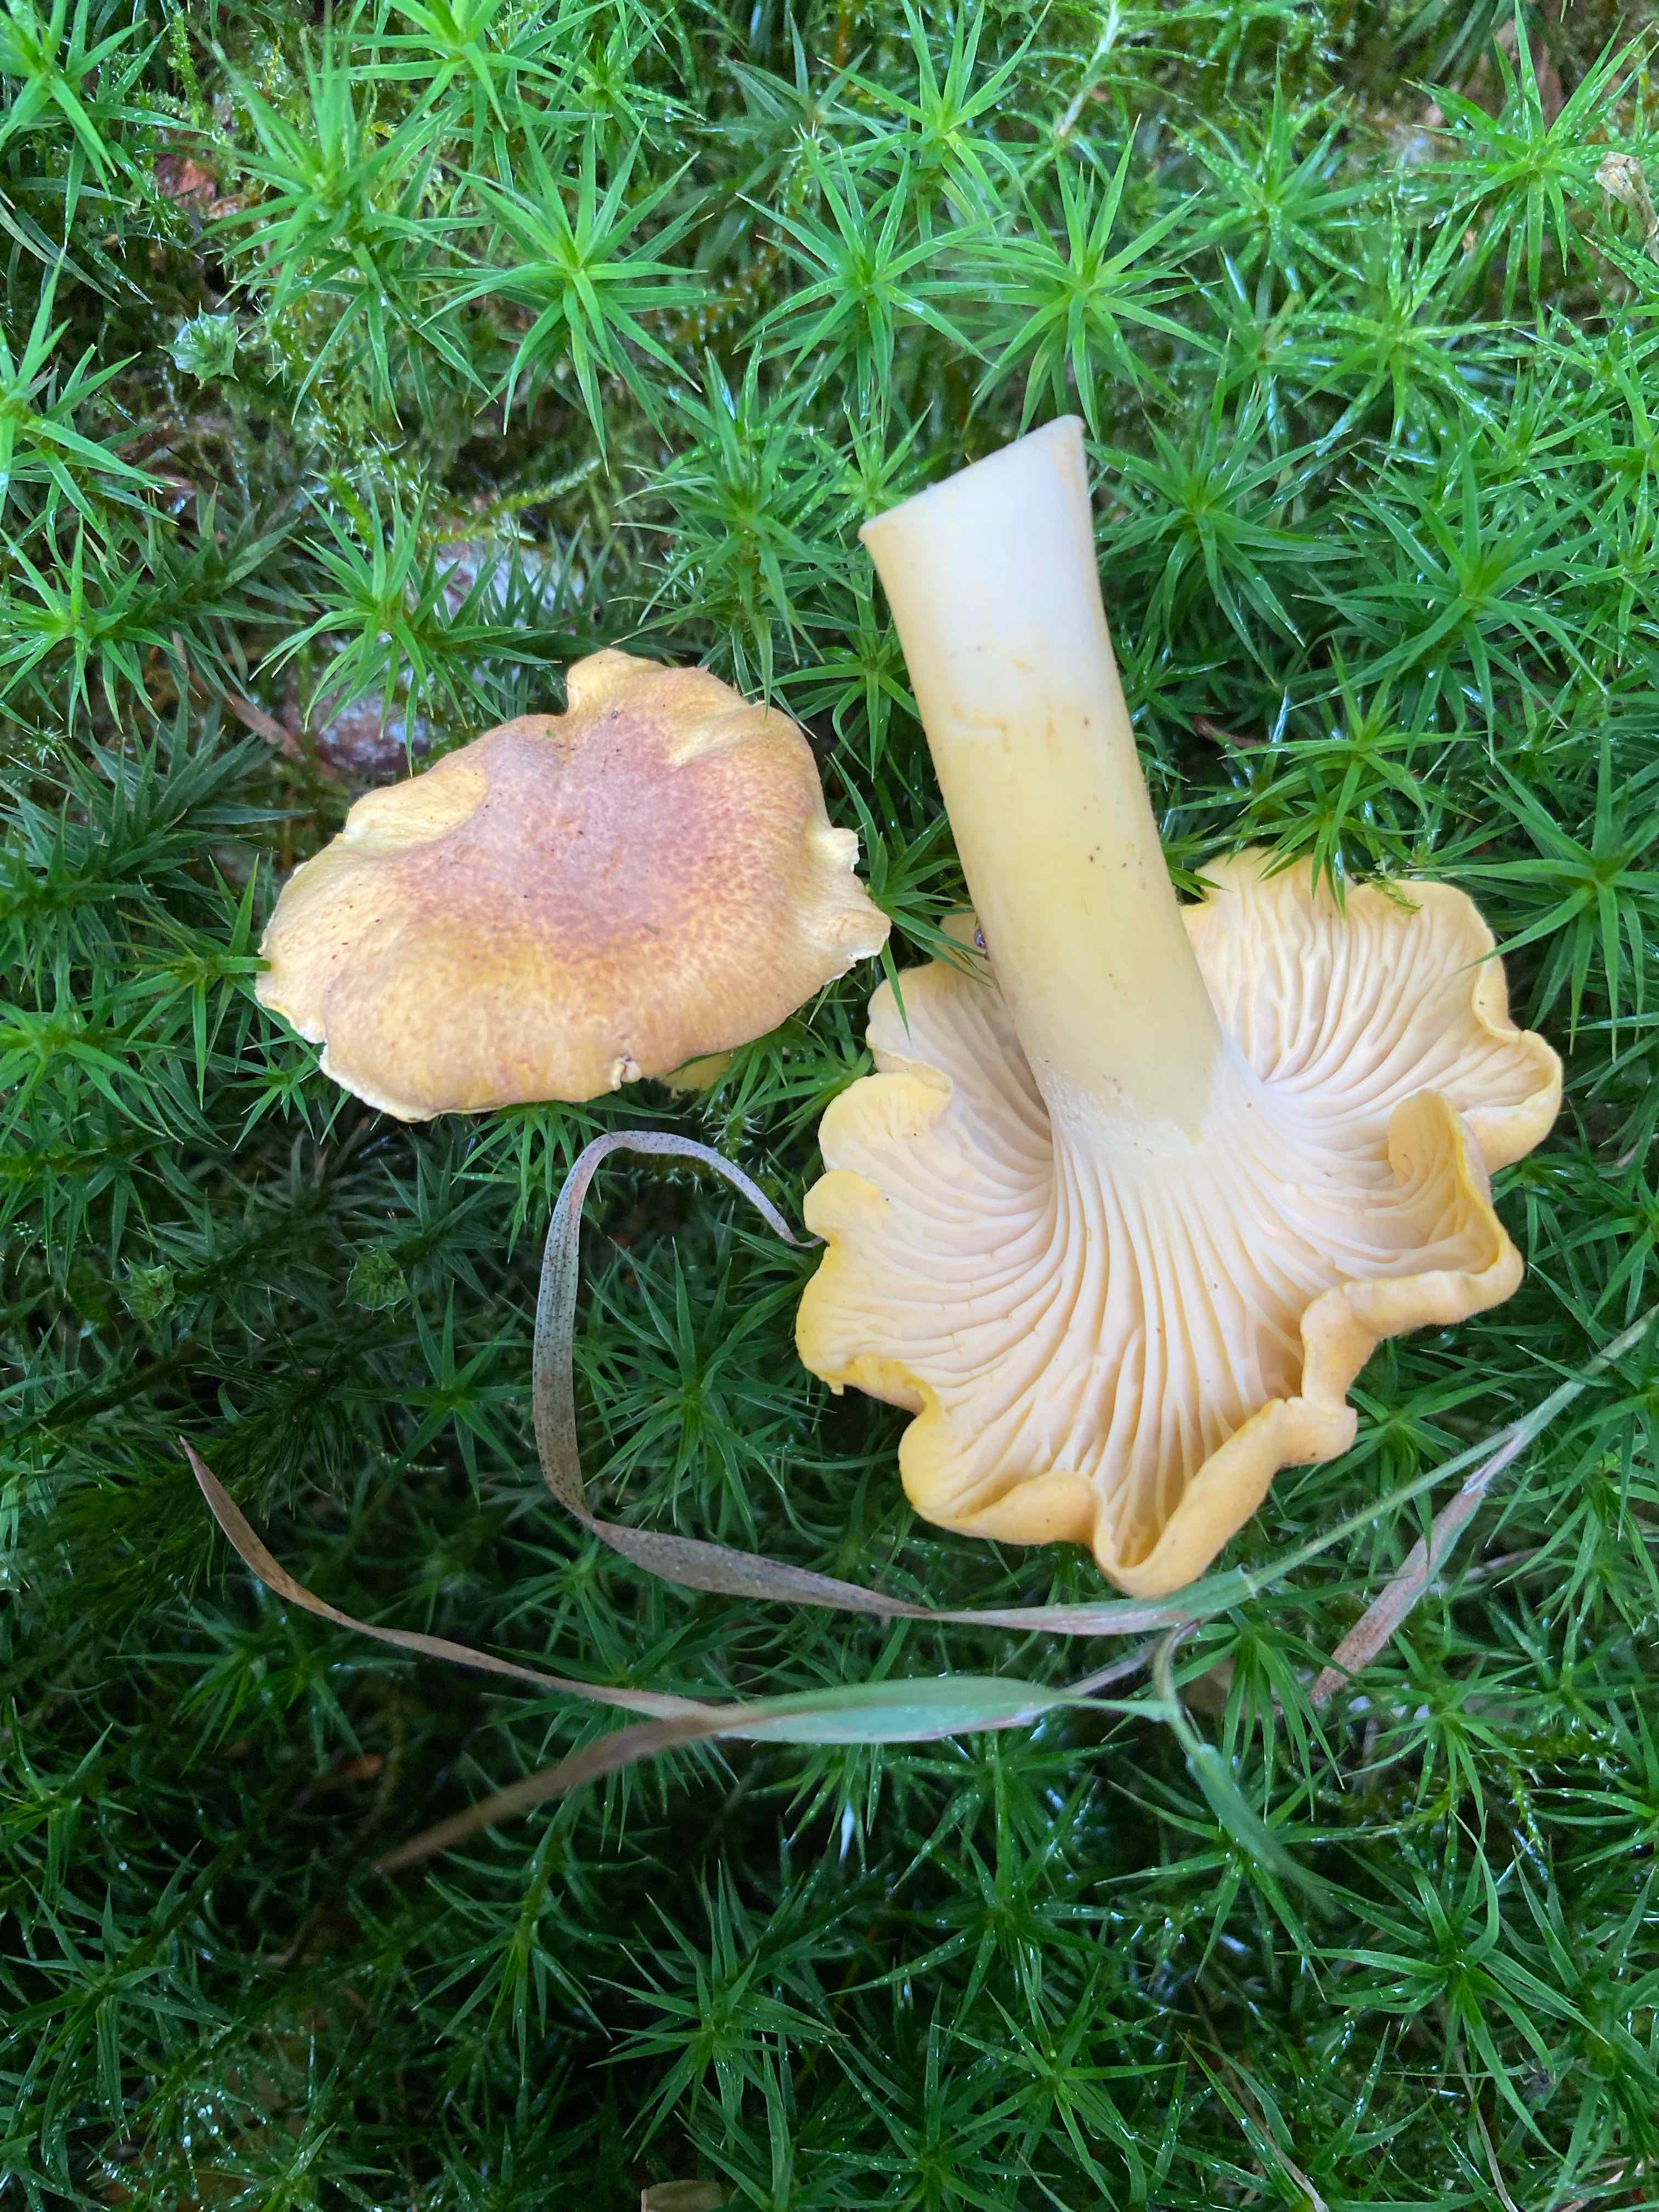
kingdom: Fungi
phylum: Basidiomycota
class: Agaricomycetes
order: Cantharellales
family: Hydnaceae
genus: Cantharellus
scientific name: Cantharellus amethysteus
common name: ametyst-kantarel
